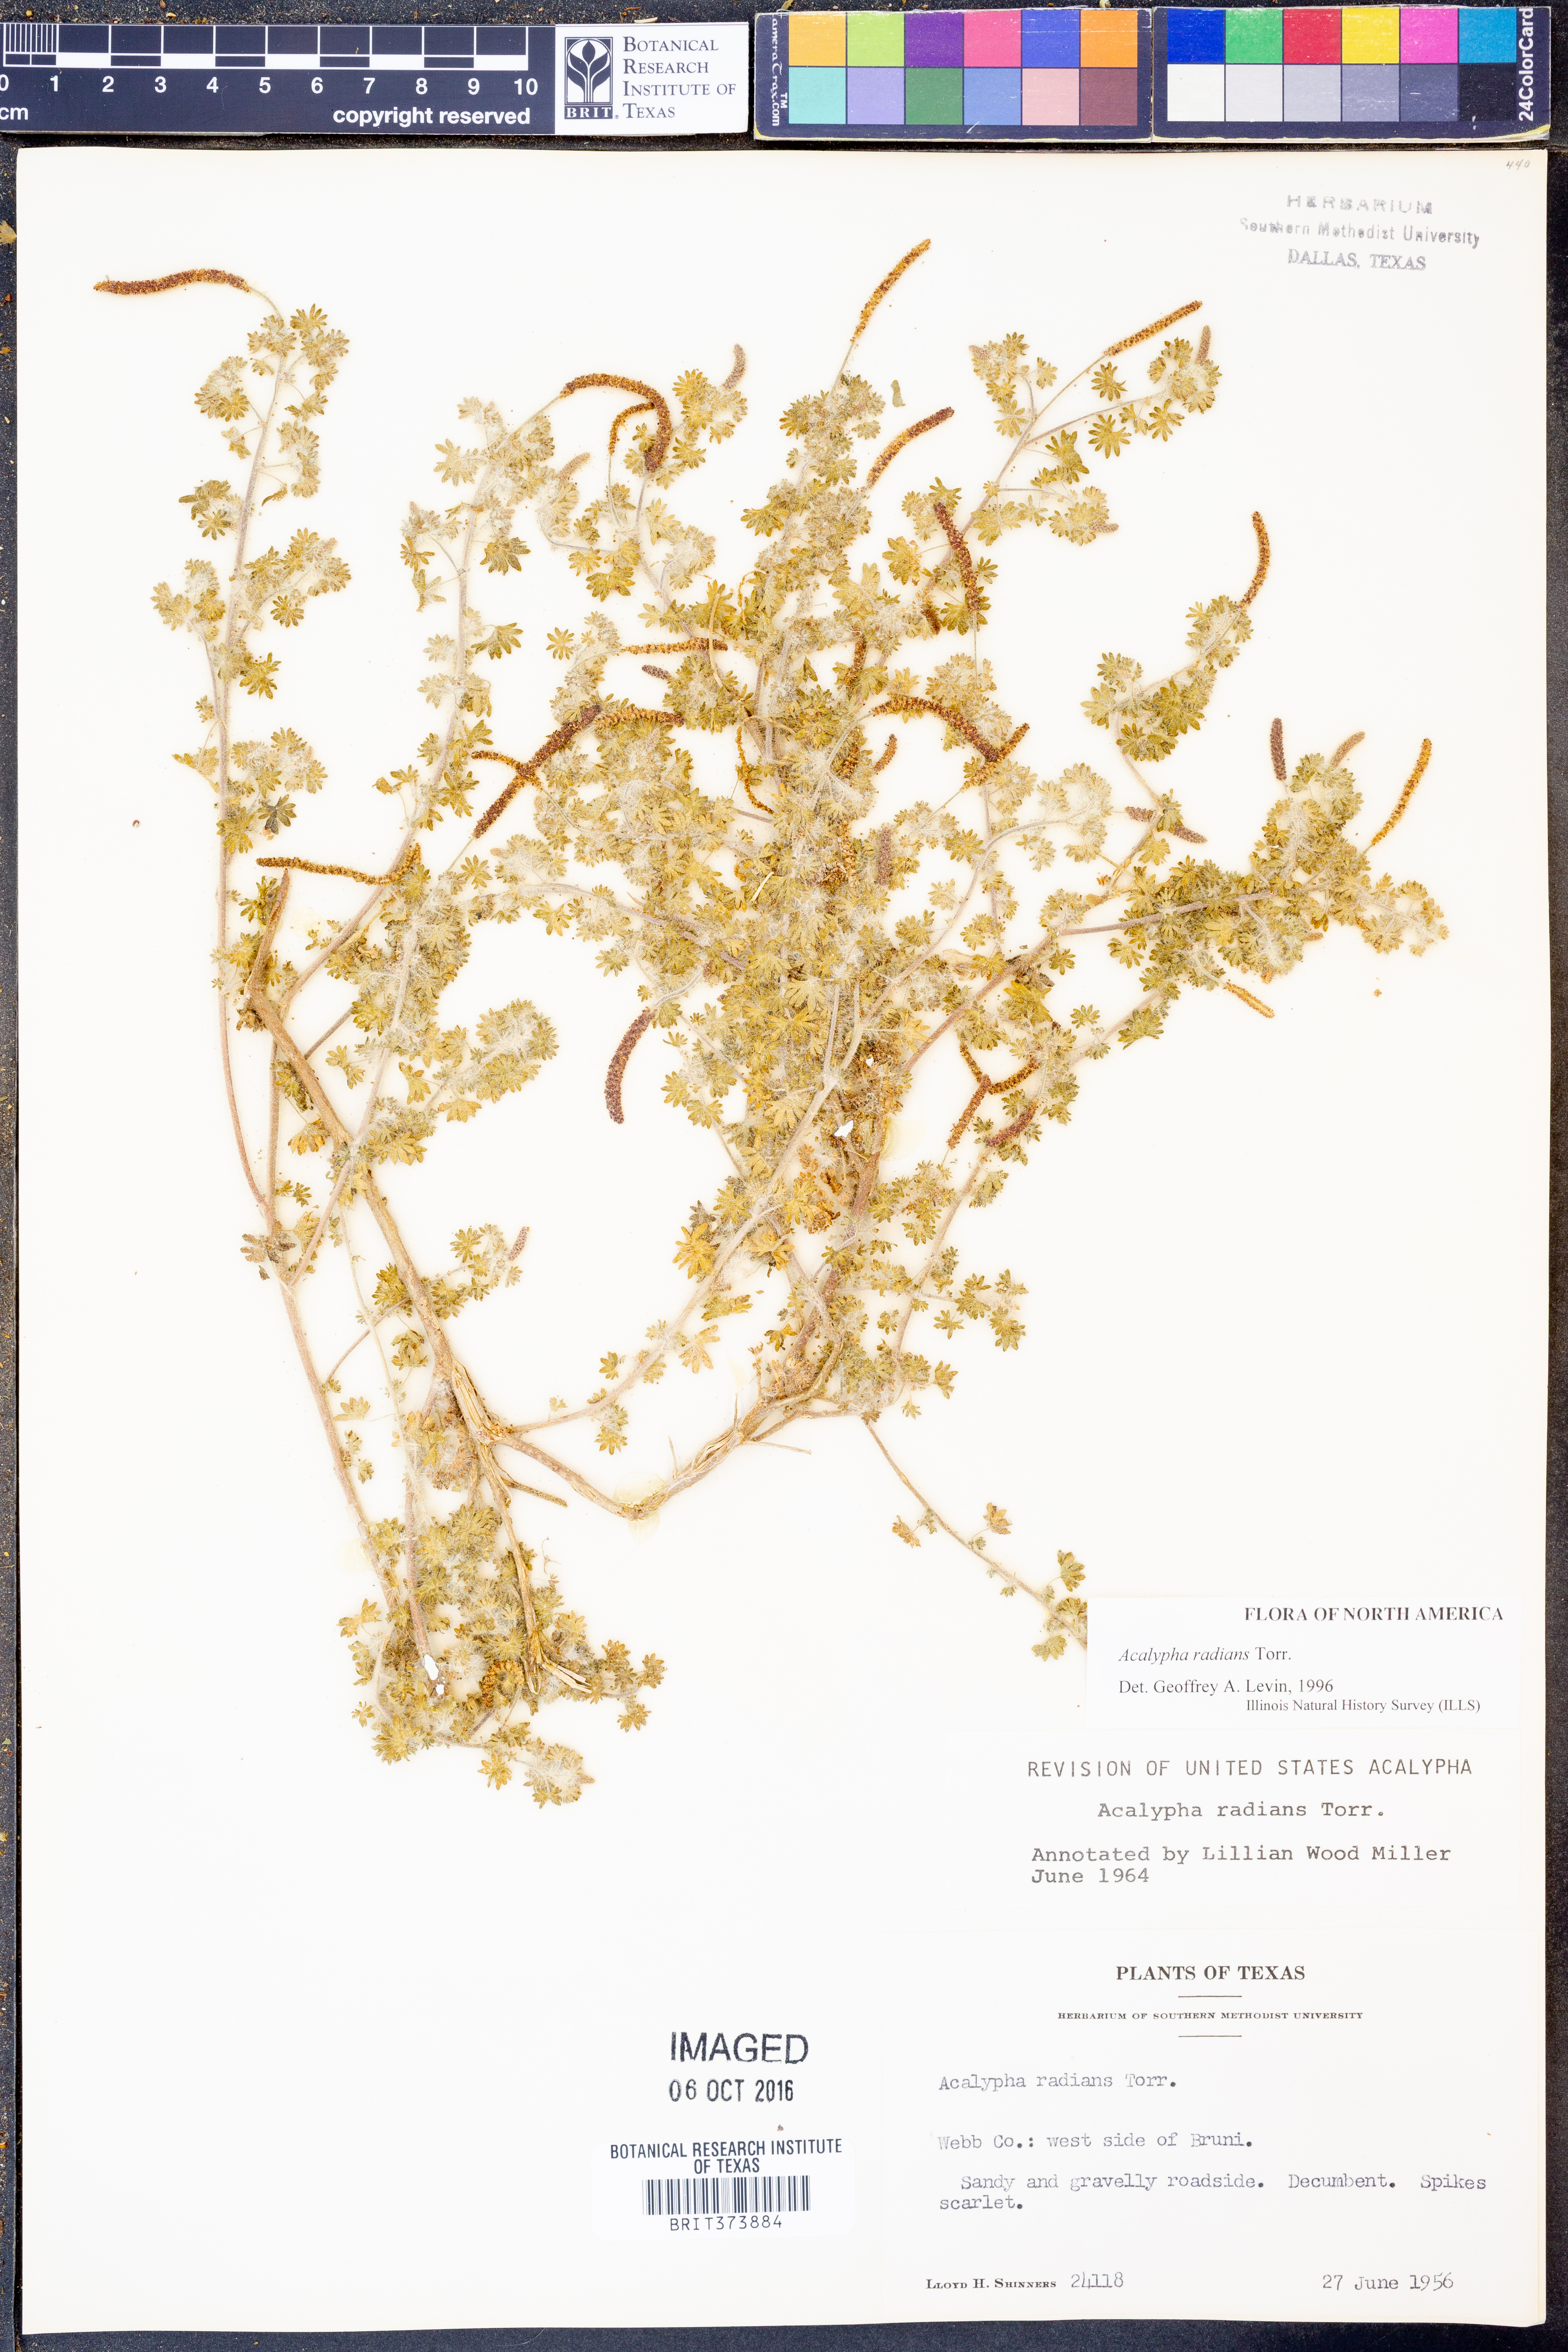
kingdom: Plantae
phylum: Tracheophyta
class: Magnoliopsida
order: Malpighiales
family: Euphorbiaceae
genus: Acalypha
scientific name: Acalypha radians
